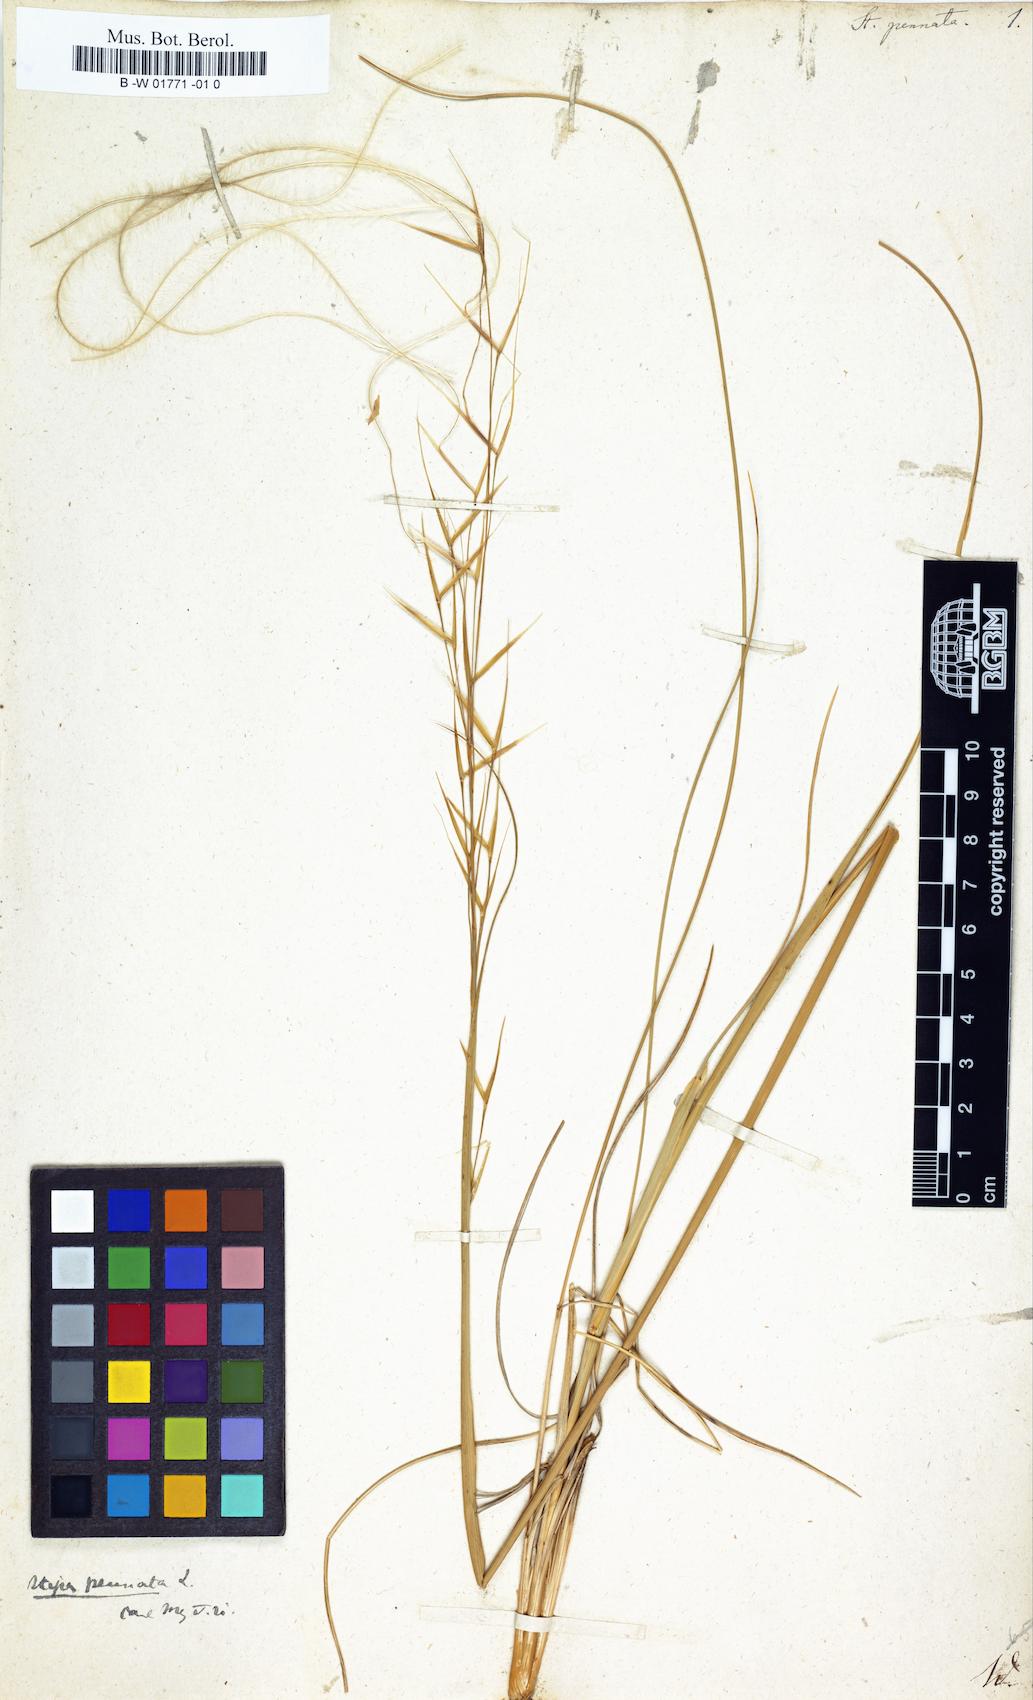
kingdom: Plantae
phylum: Tracheophyta
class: Liliopsida
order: Poales
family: Poaceae
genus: Stipa
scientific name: Stipa pennata
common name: European feather grass
